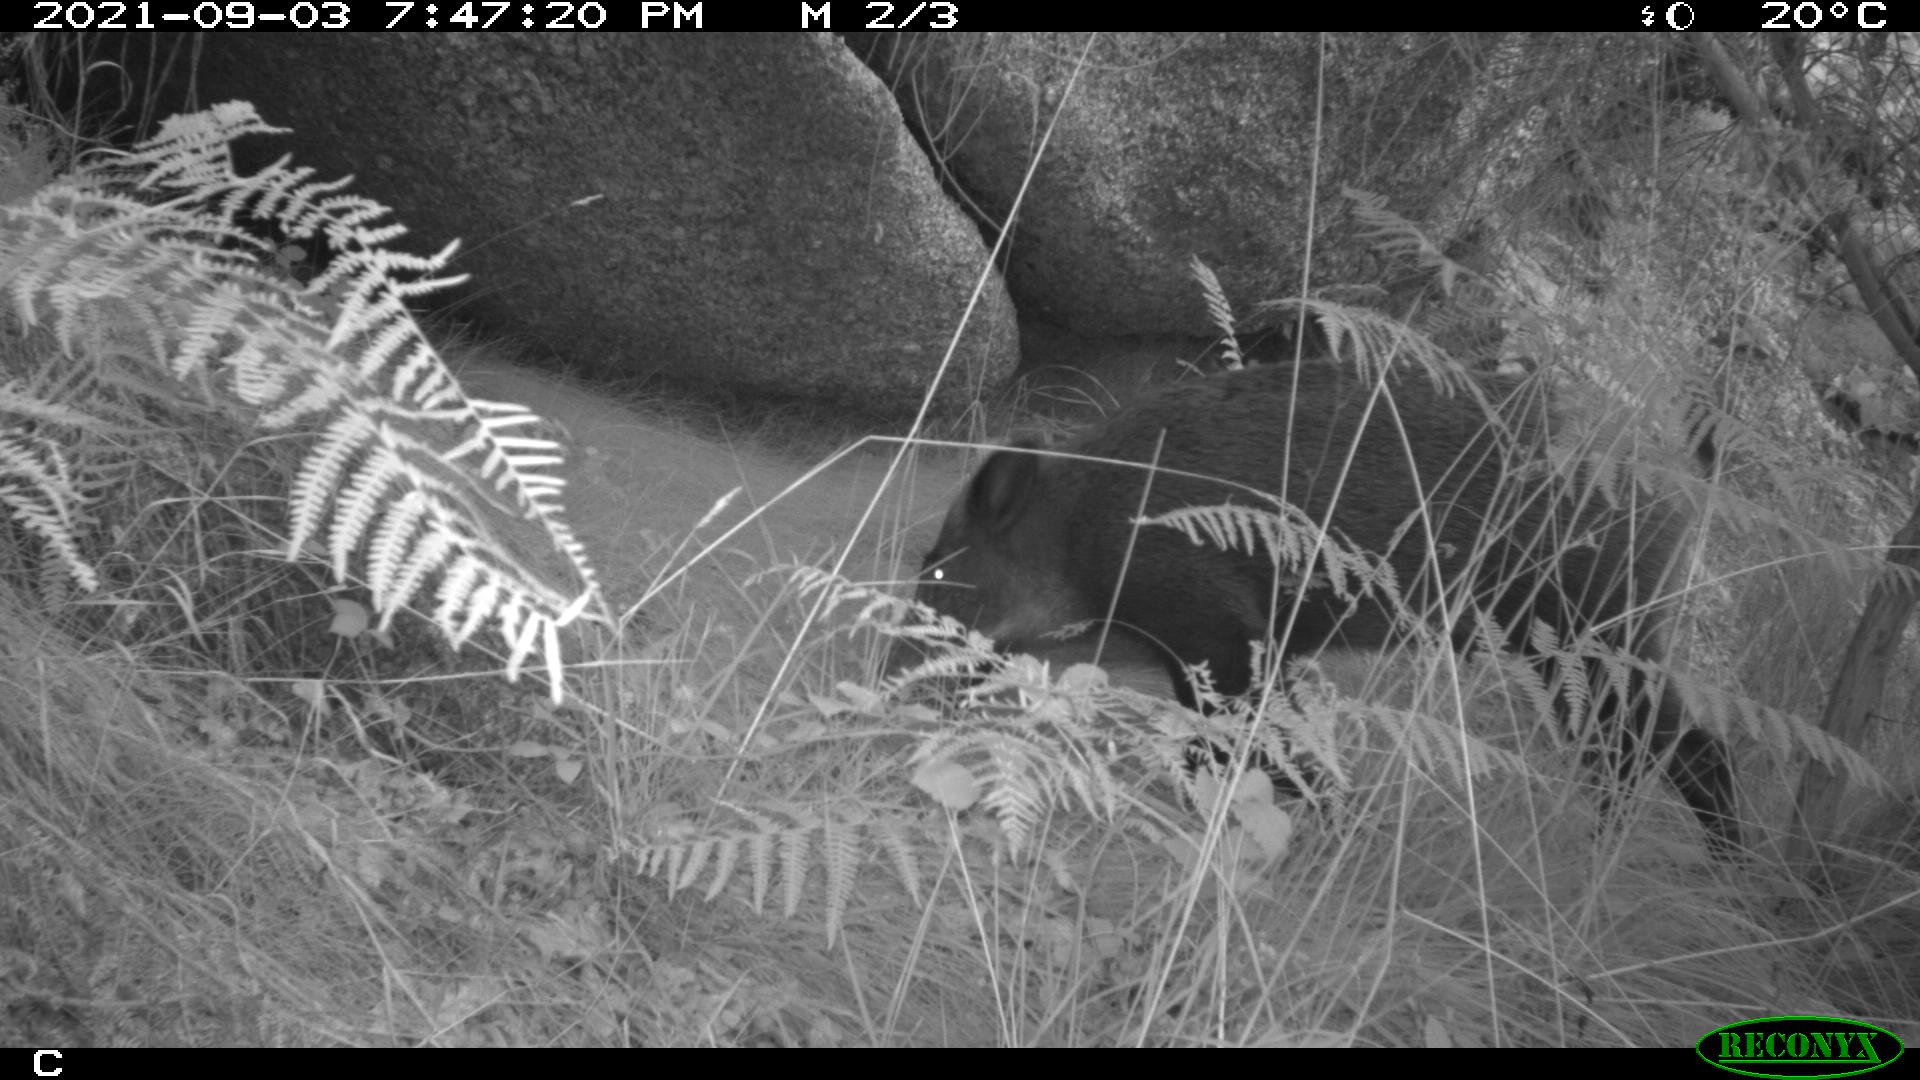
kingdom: Animalia
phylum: Chordata
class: Mammalia
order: Artiodactyla
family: Suidae
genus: Sus
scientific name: Sus scrofa
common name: Wild boar
